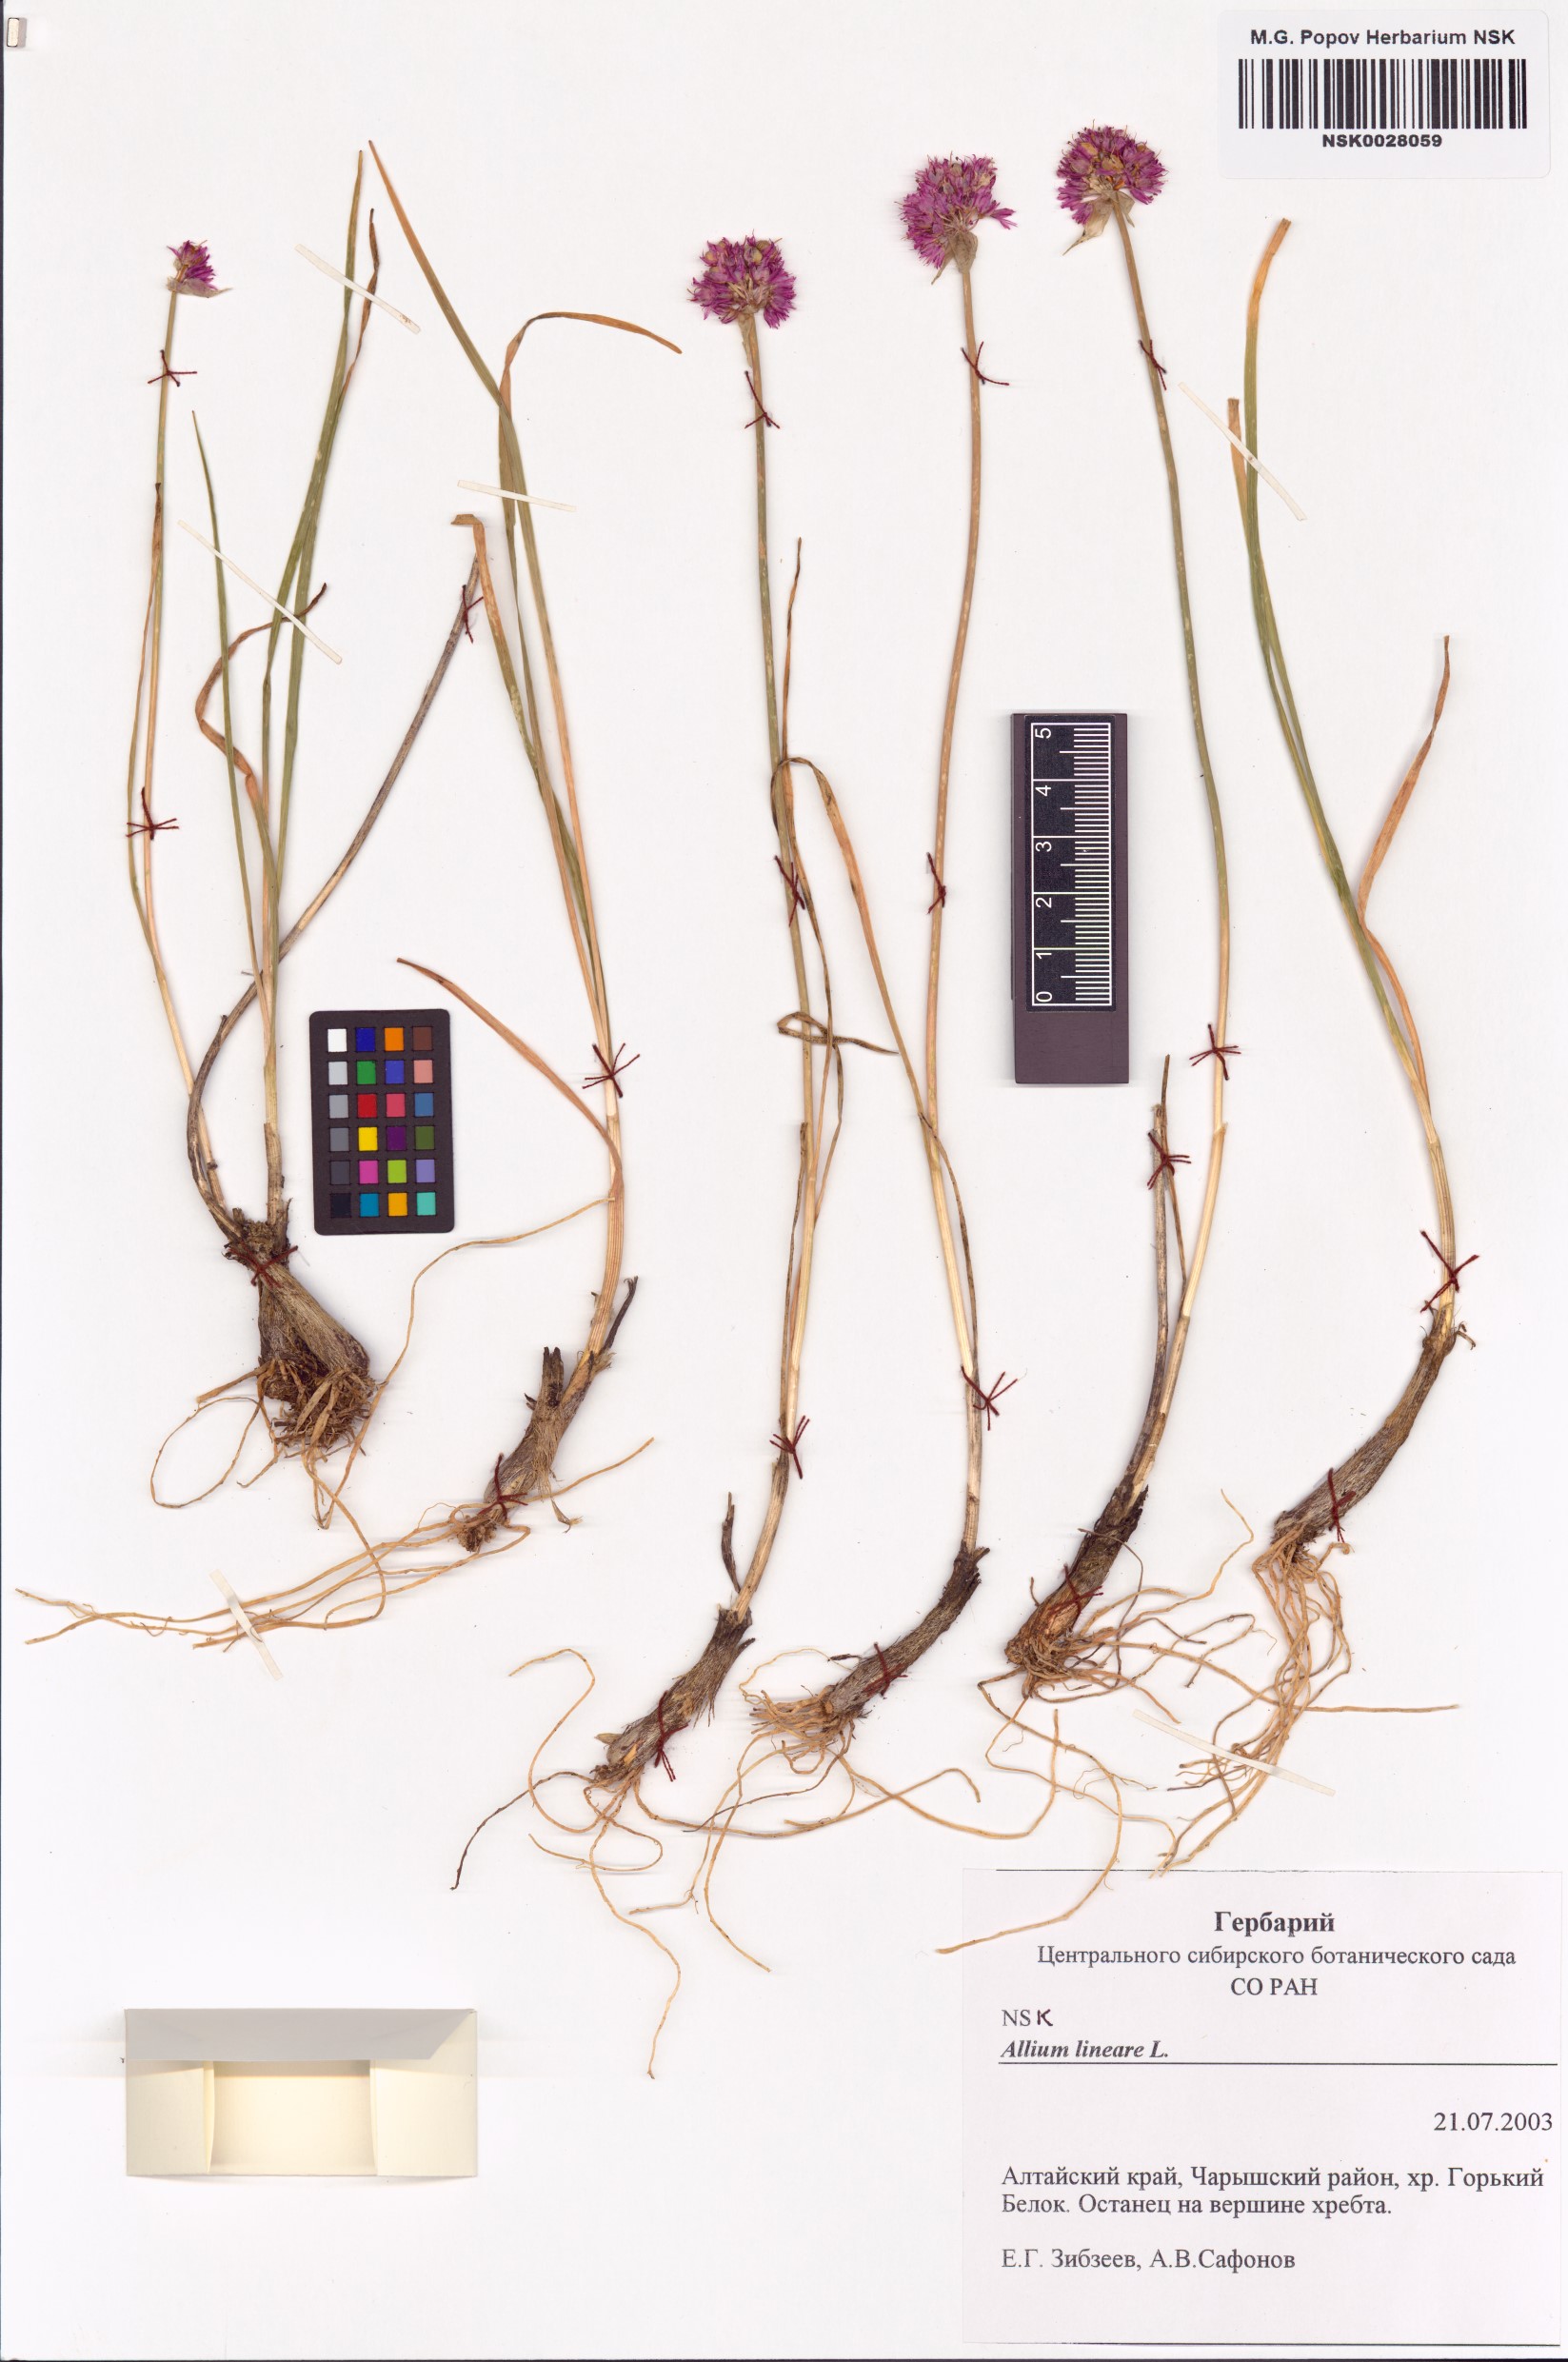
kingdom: Plantae
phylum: Tracheophyta
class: Liliopsida
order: Asparagales
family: Amaryllidaceae
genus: Allium
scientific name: Allium lineare
